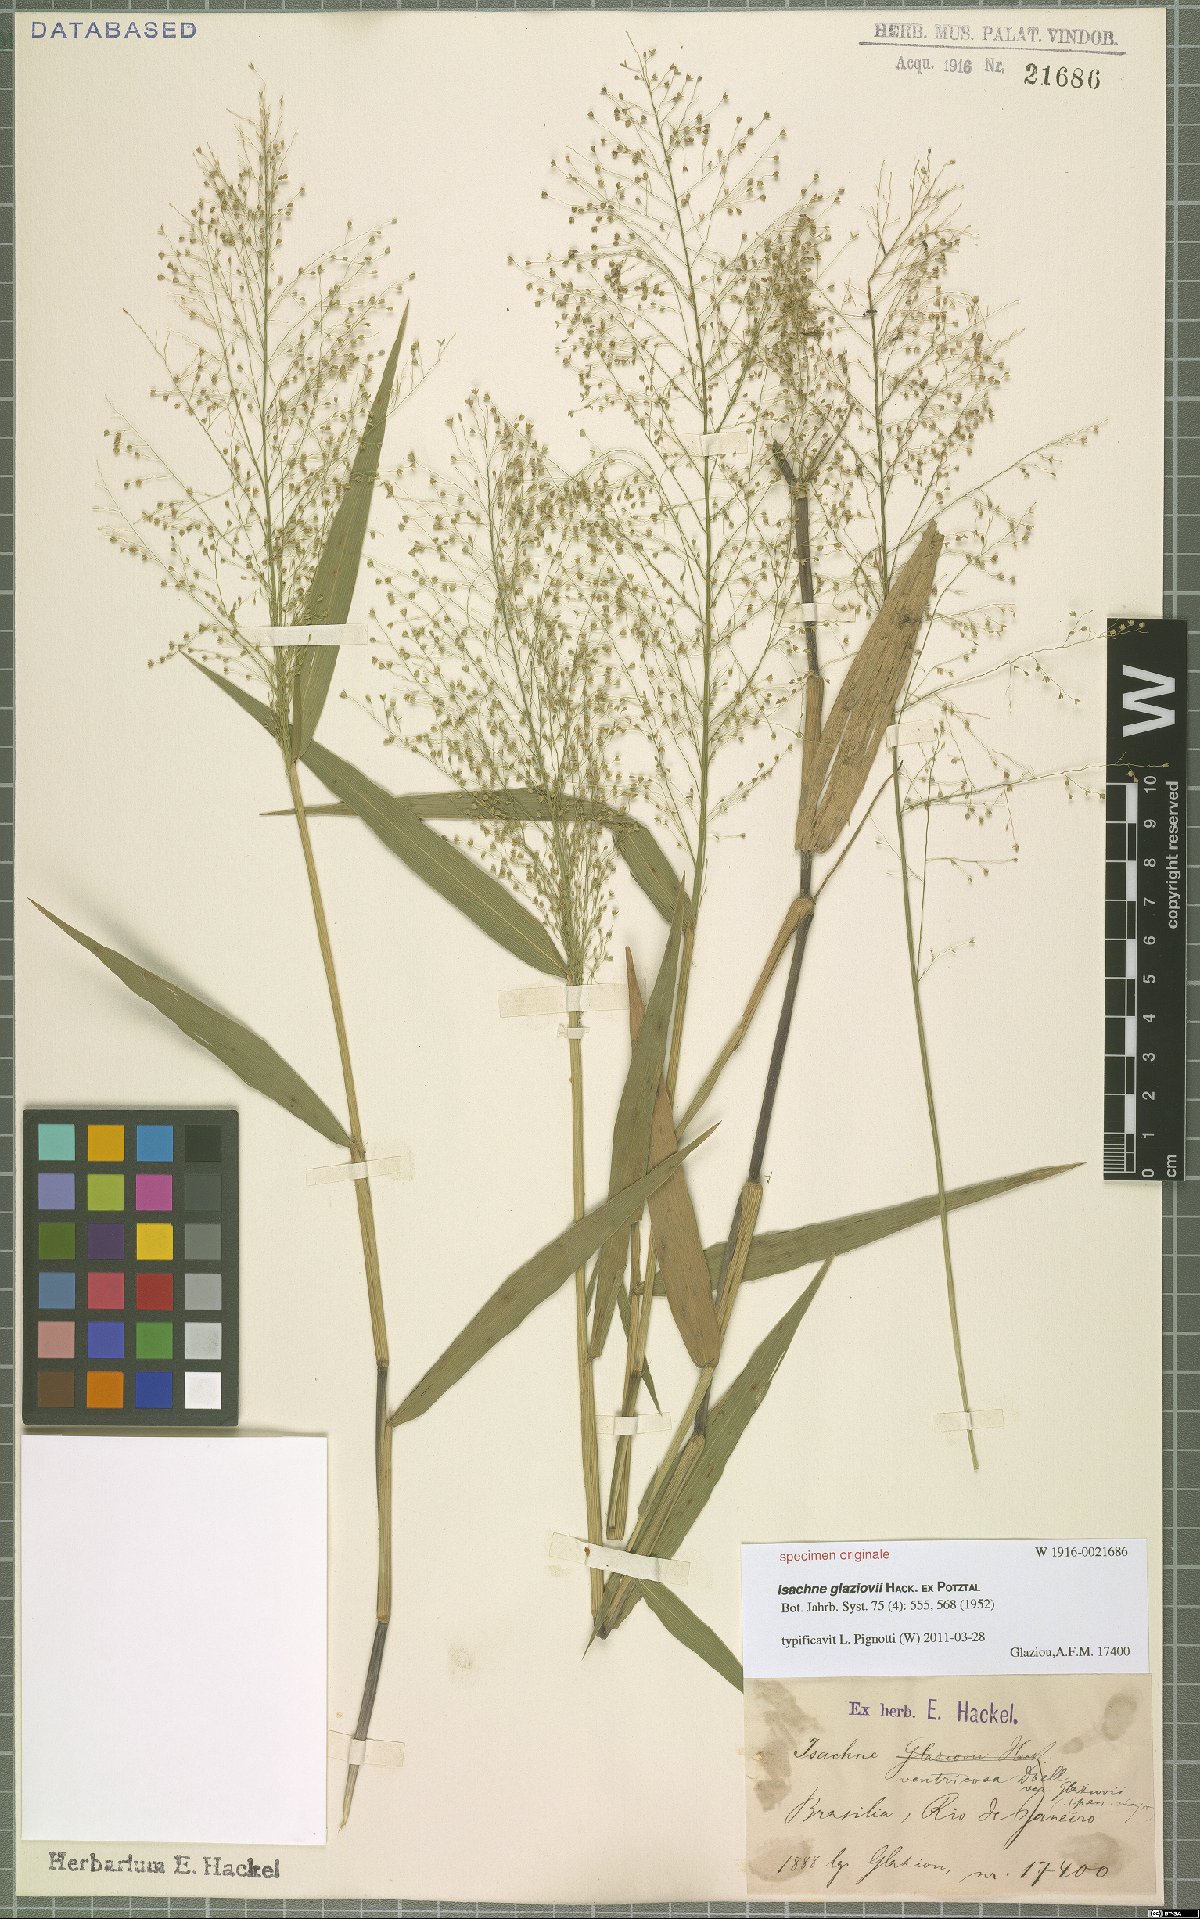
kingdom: Plantae
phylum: Tracheophyta
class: Liliopsida
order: Poales
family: Poaceae
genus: Isachne
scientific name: Isachne
